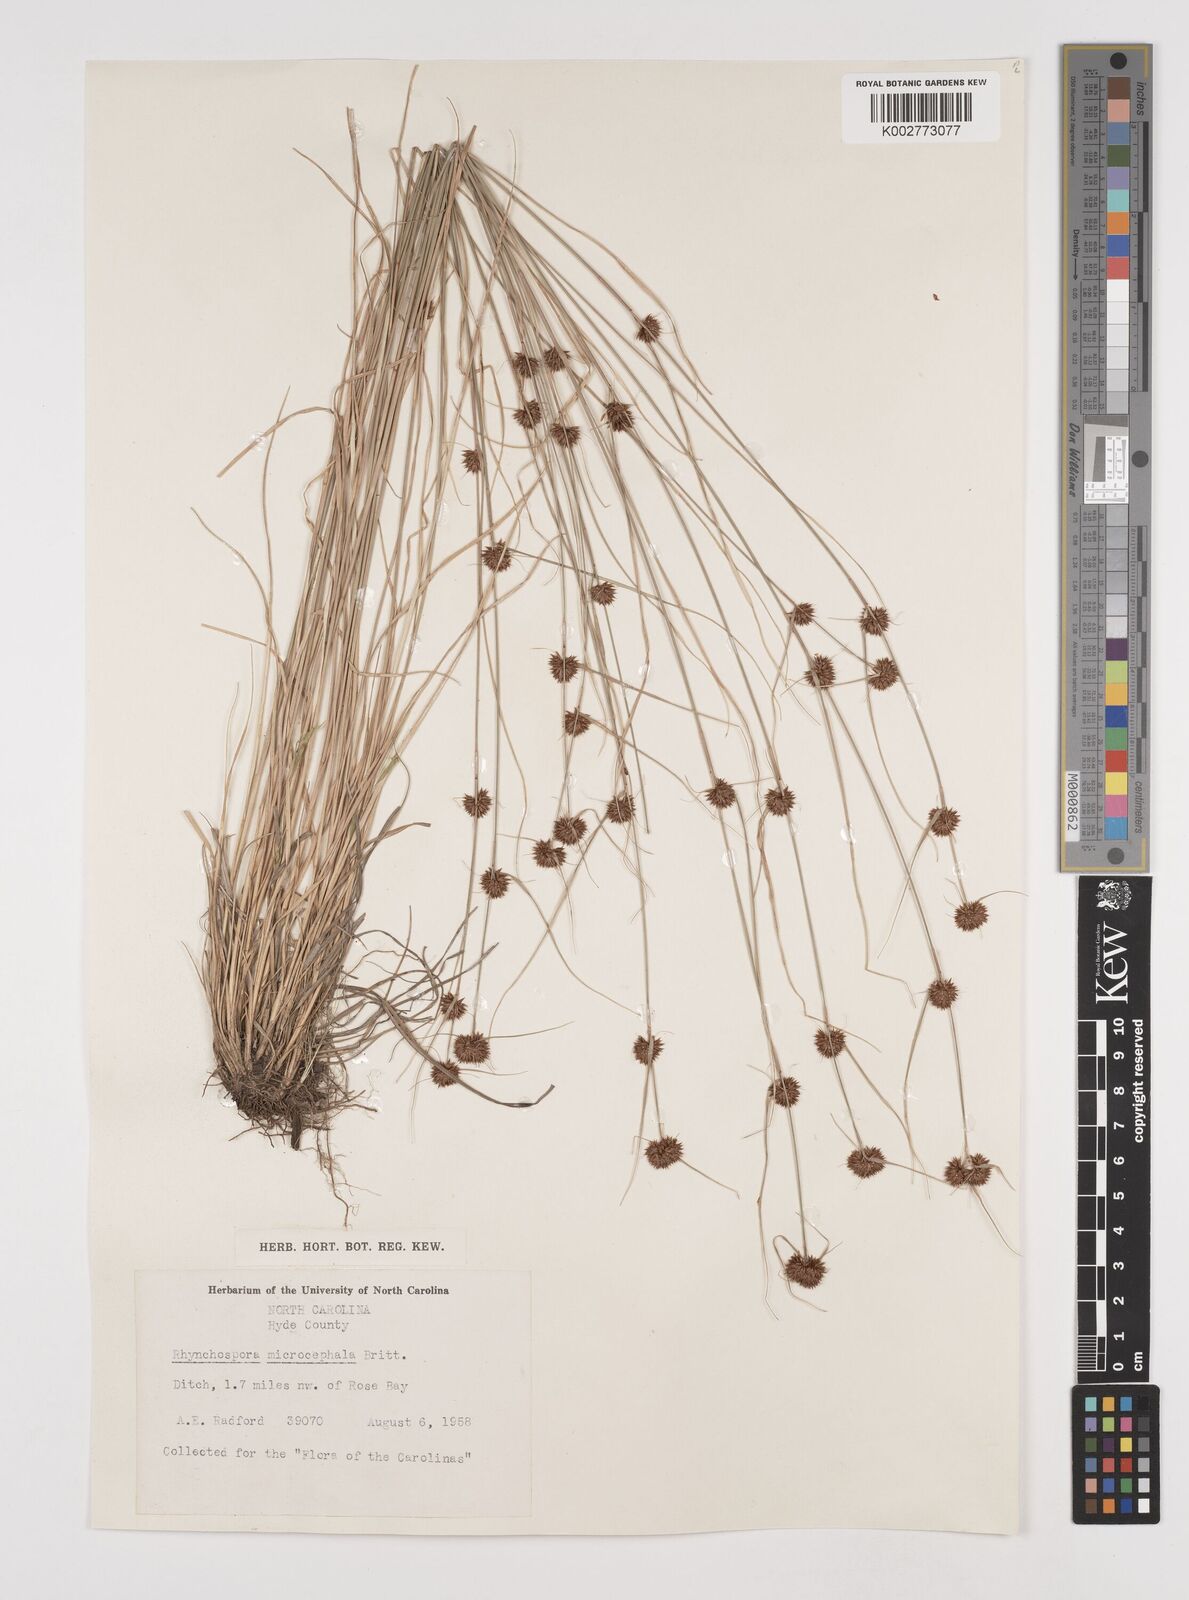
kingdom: Plantae
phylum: Tracheophyta
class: Liliopsida
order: Poales
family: Cyperaceae
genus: Rhynchospora
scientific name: Rhynchospora microcephala
